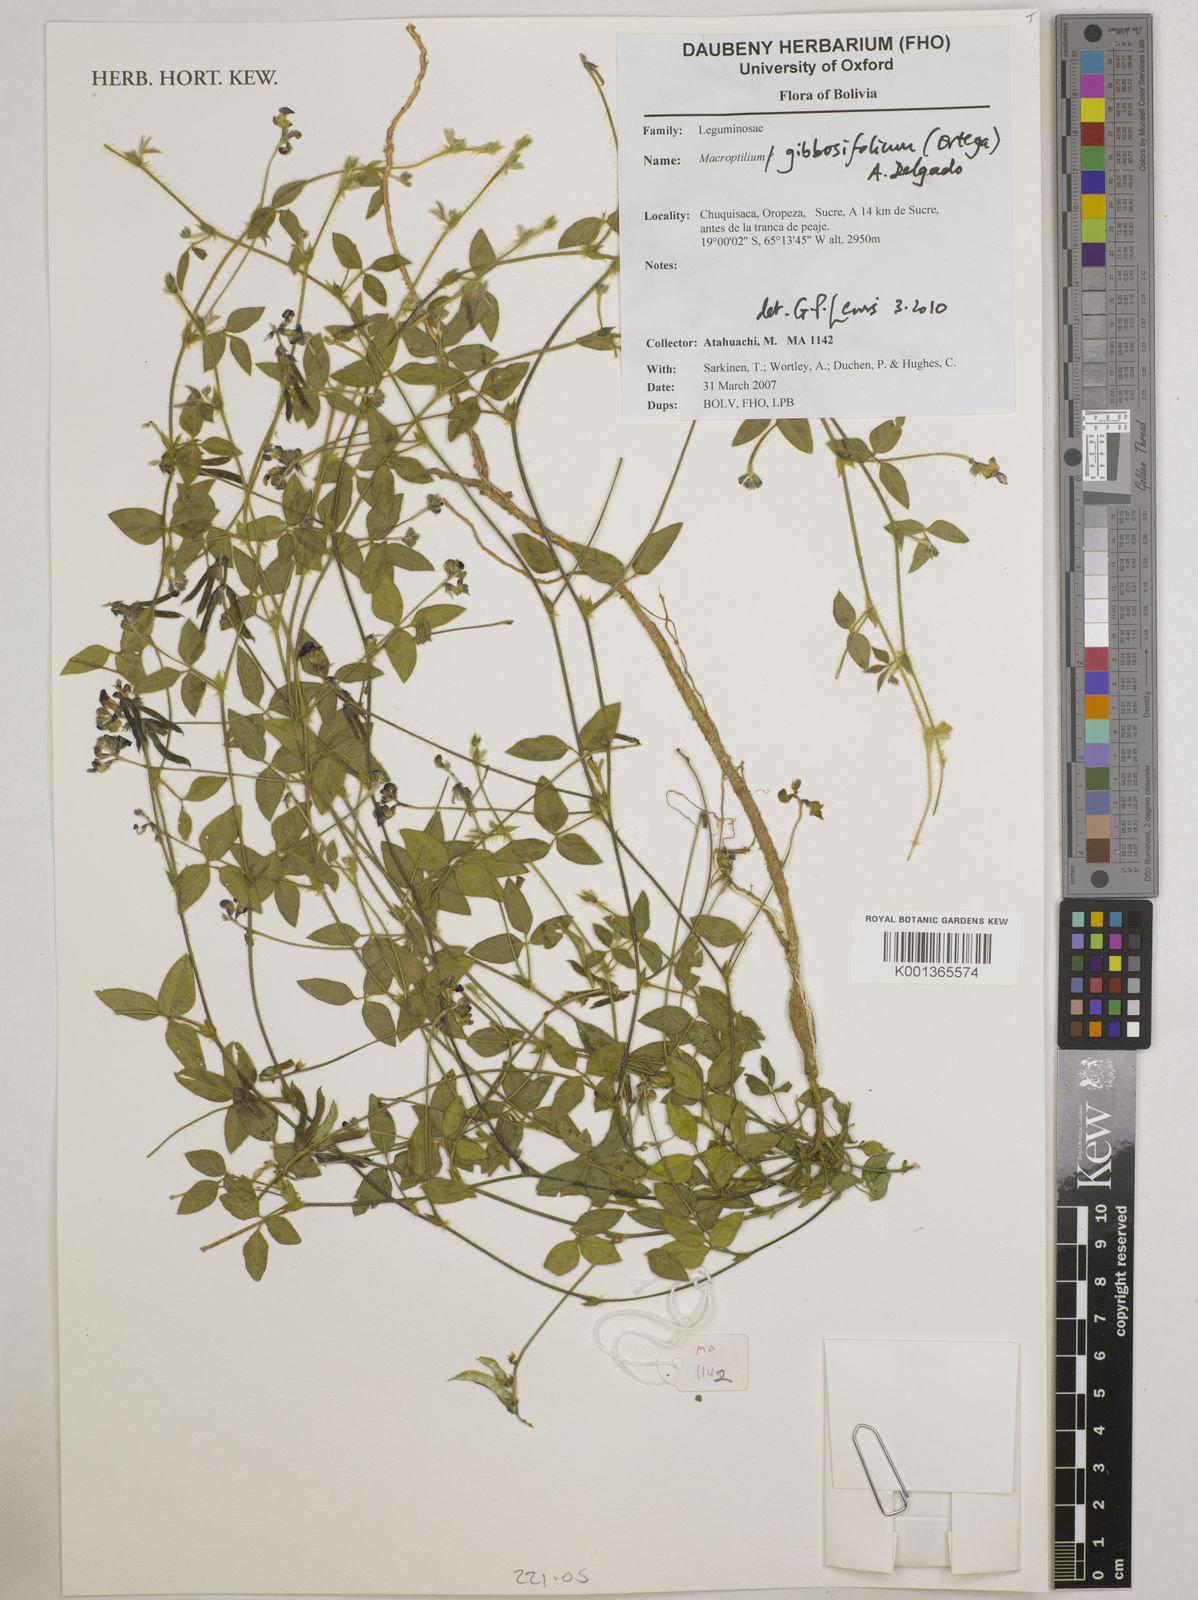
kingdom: Plantae
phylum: Tracheophyta
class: Magnoliopsida
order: Fabales
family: Fabaceae
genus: Macroptilium
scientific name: Macroptilium gibbosifolium
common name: Variableleaf bushbean
